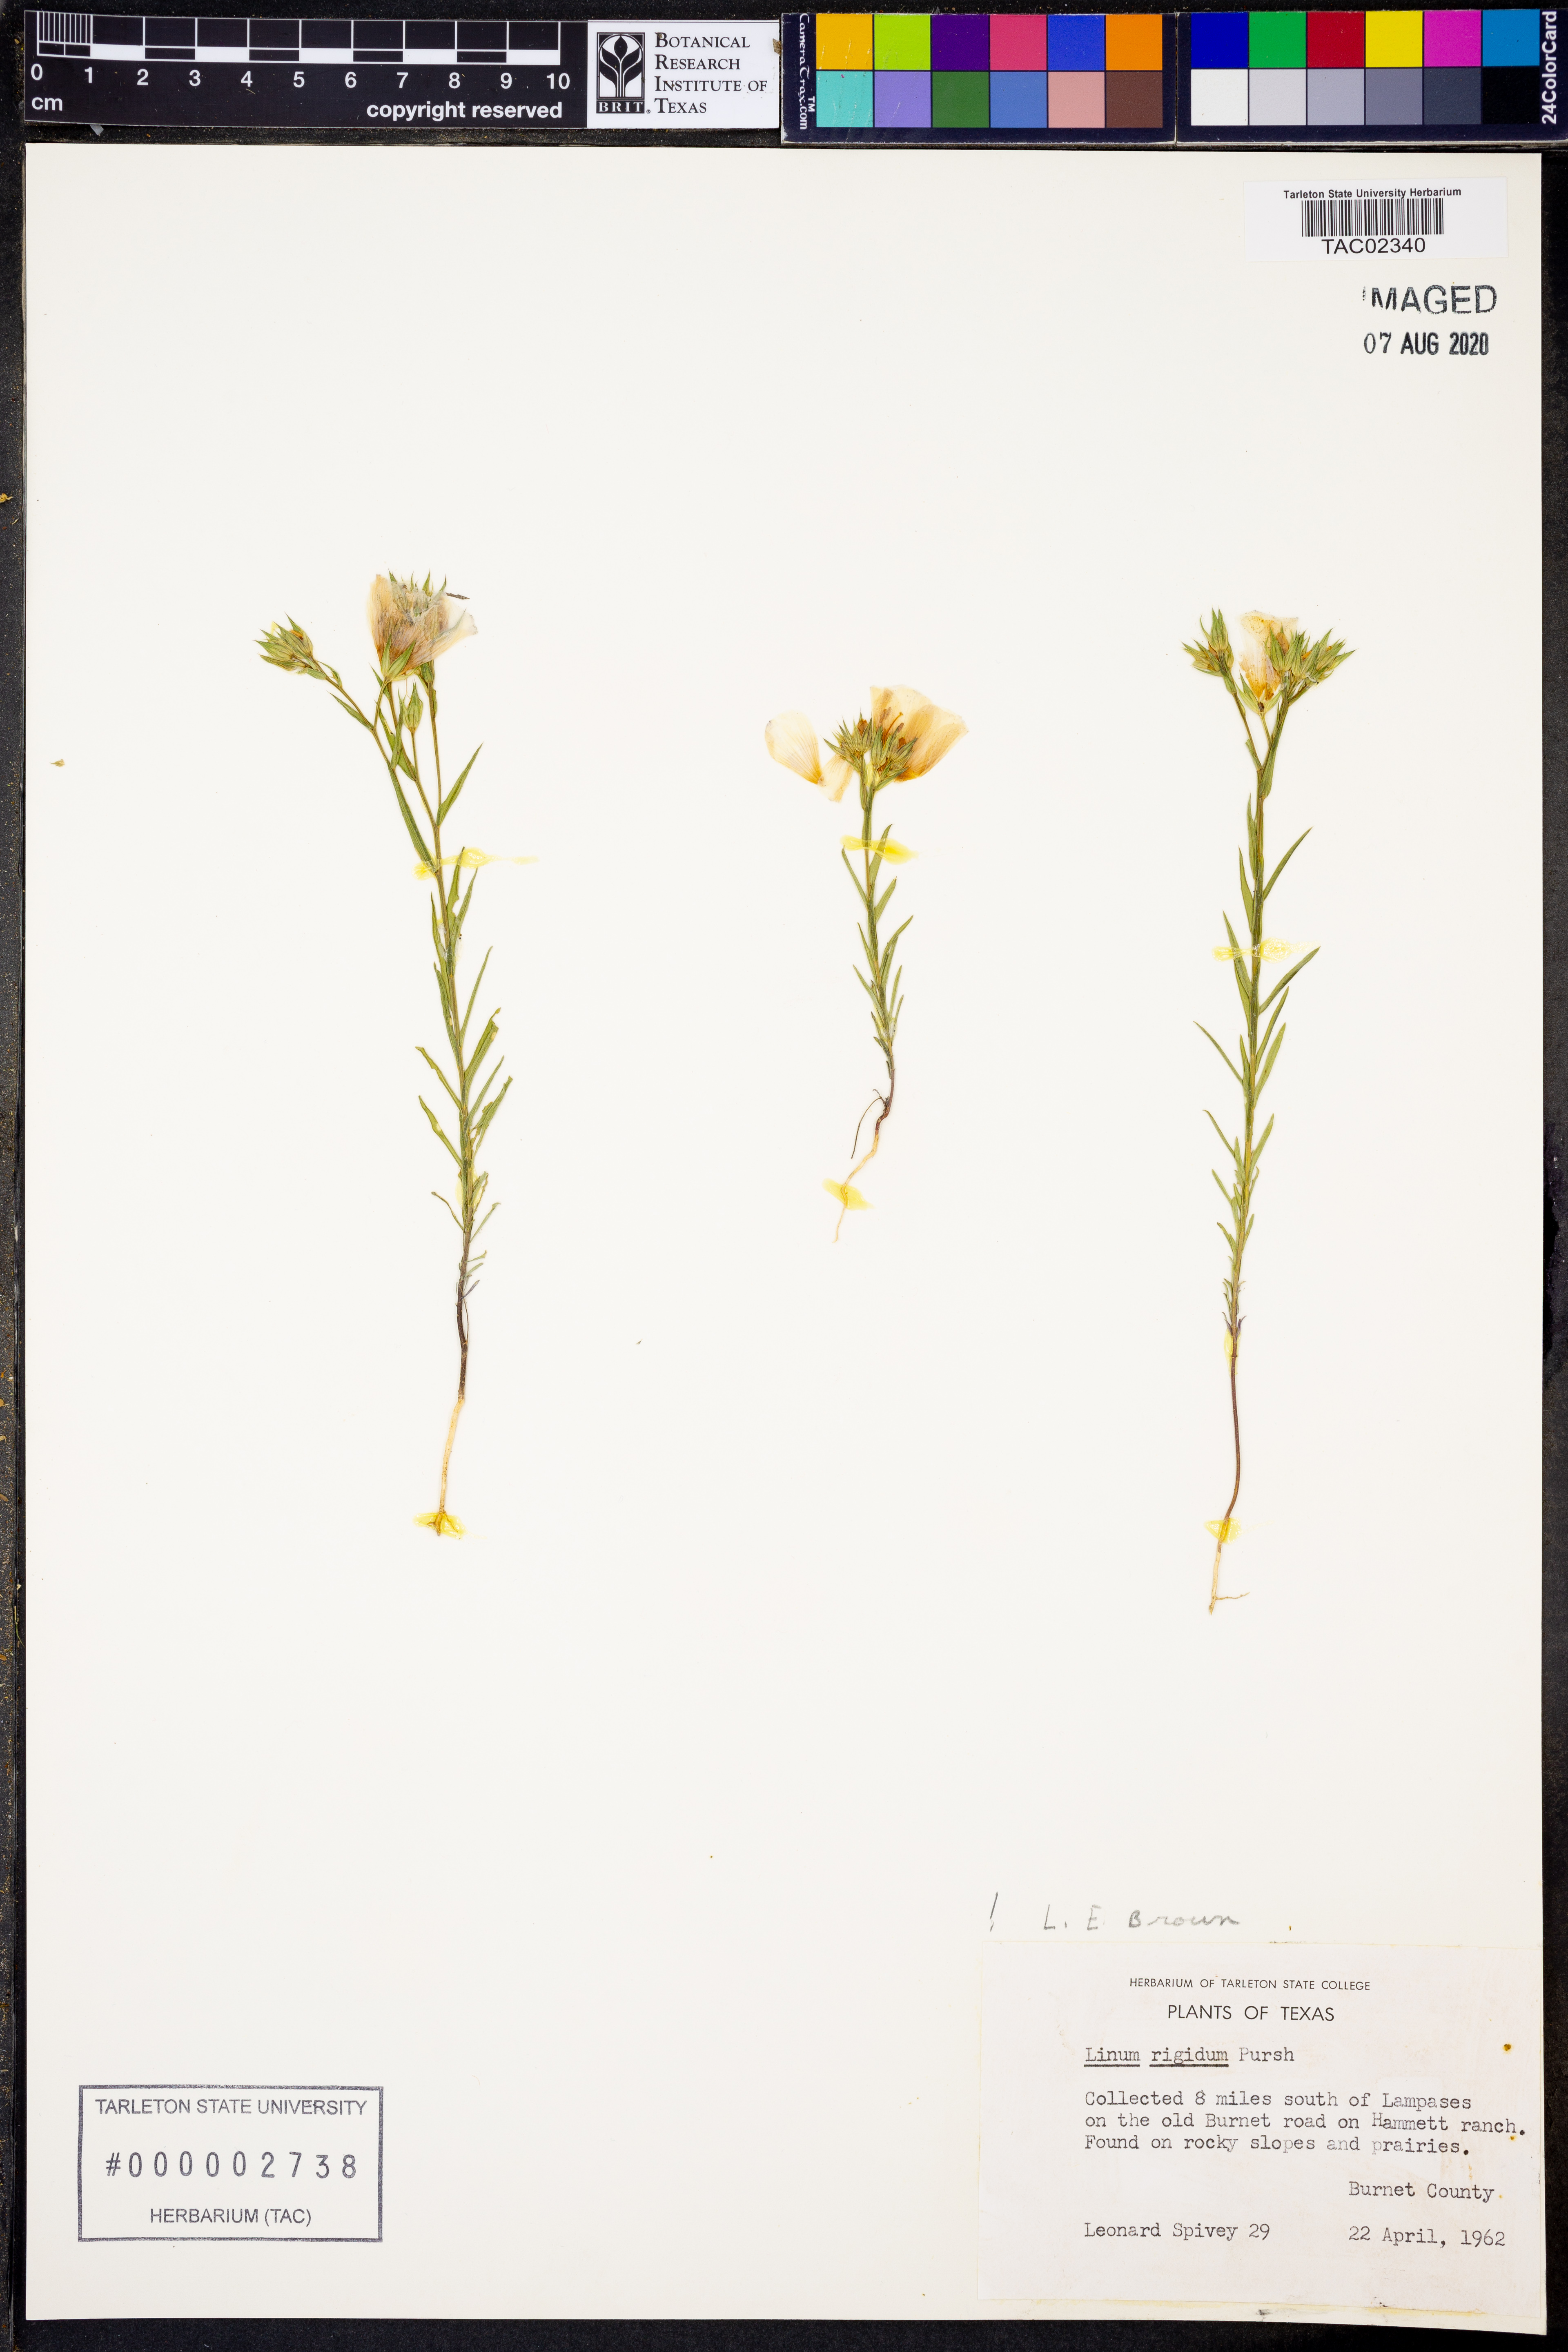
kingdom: Plantae
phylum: Tracheophyta
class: Magnoliopsida
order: Malpighiales
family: Linaceae
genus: Linum
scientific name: Linum rigidum
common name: Stiff-stem flax
